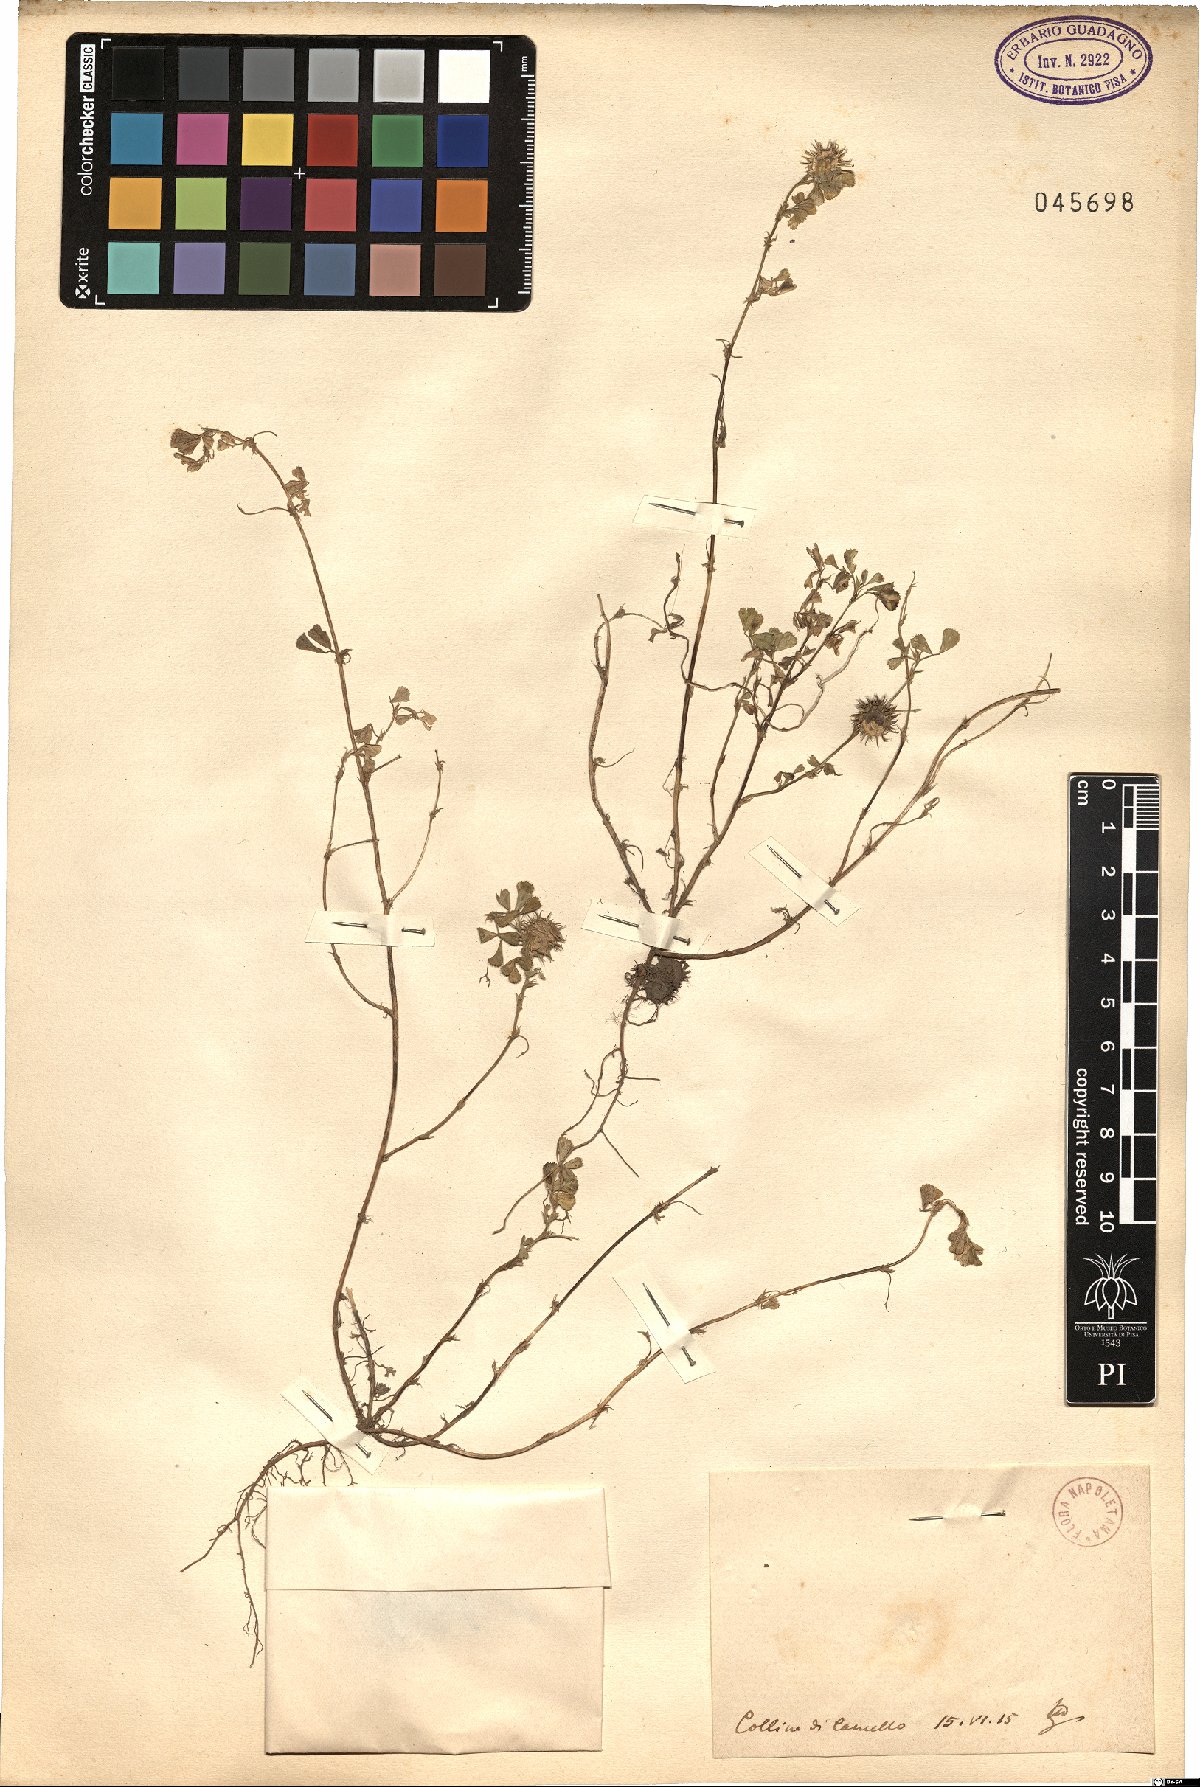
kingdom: Plantae
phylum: Tracheophyta
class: Magnoliopsida
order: Fabales
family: Fabaceae
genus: Medicago
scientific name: Medicago
